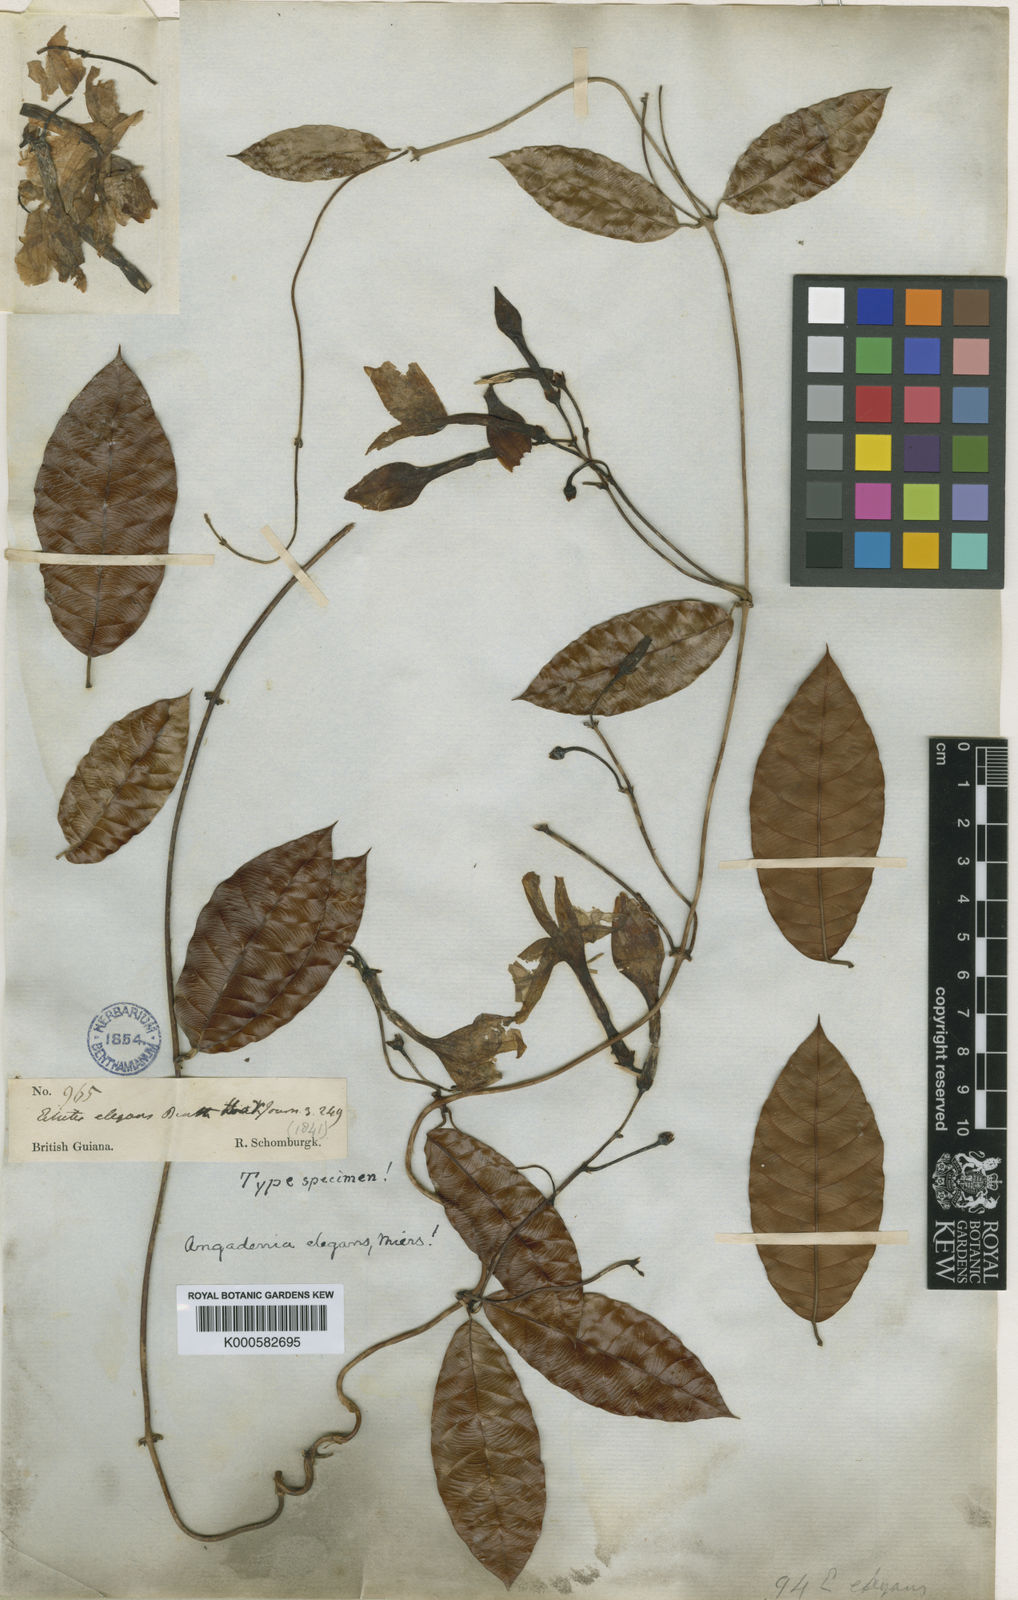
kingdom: Plantae
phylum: Tracheophyta
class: Magnoliopsida
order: Gentianales
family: Apocynaceae
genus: Odontadenia
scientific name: Odontadenia
